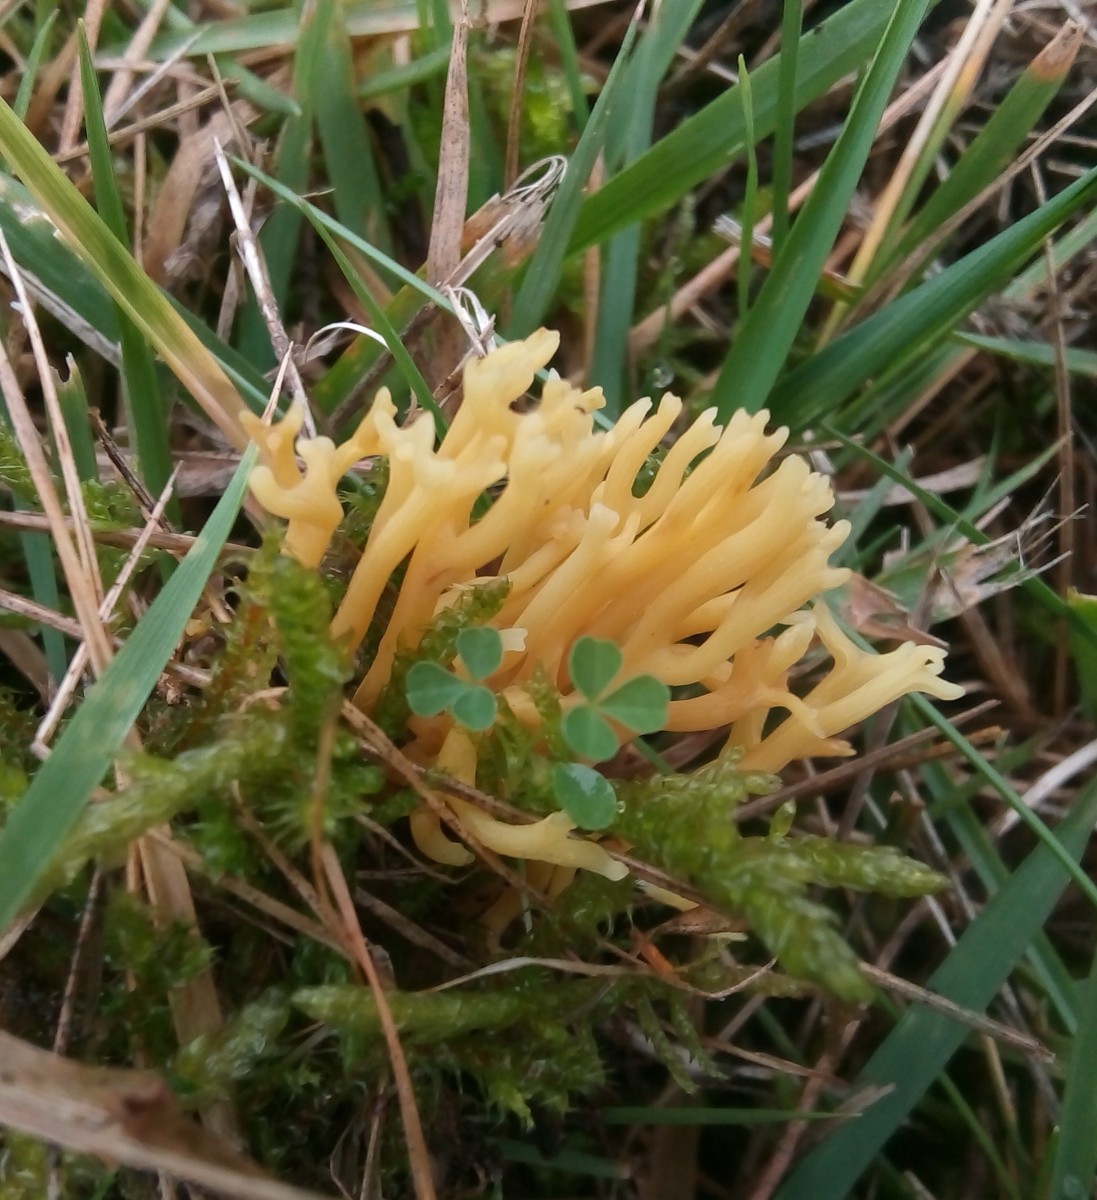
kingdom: Fungi
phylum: Basidiomycota
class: Agaricomycetes
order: Agaricales
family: Clavariaceae
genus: Clavulinopsis
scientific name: Clavulinopsis corniculata
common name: eng-køllesvamp
